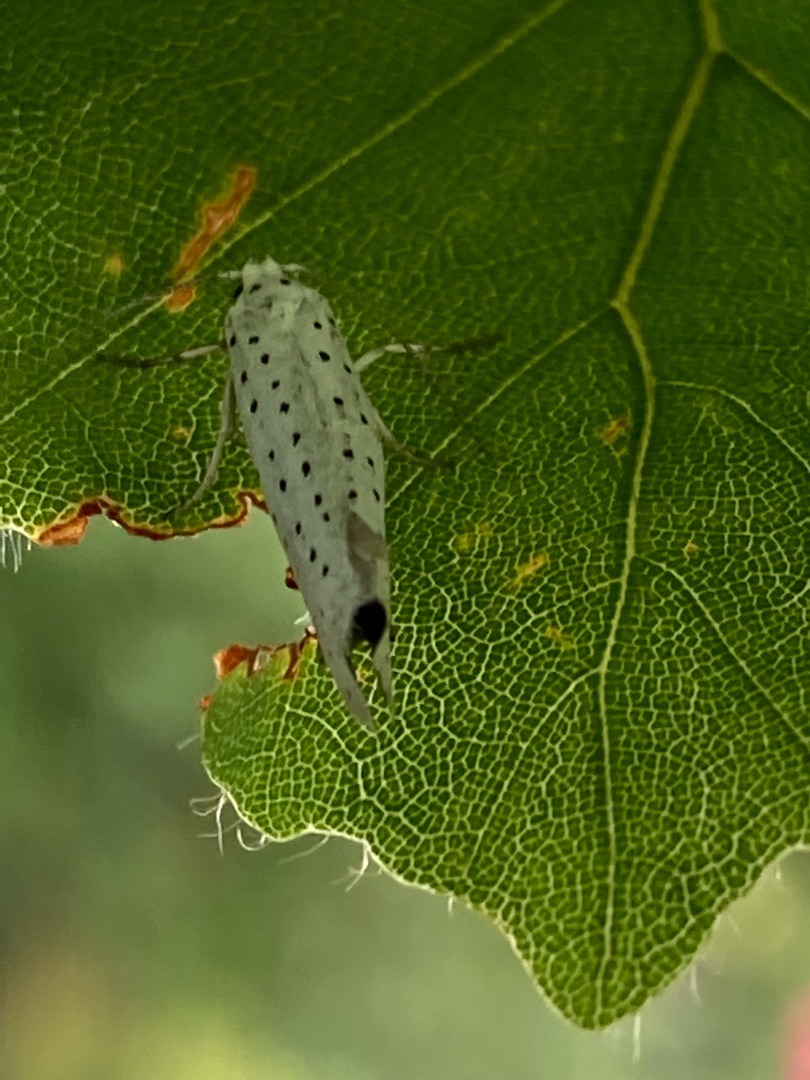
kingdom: Animalia
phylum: Arthropoda
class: Insecta
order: Lepidoptera
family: Yponomeutidae
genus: Yponomeuta
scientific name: Yponomeuta evonymella
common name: Hægspindemøl
